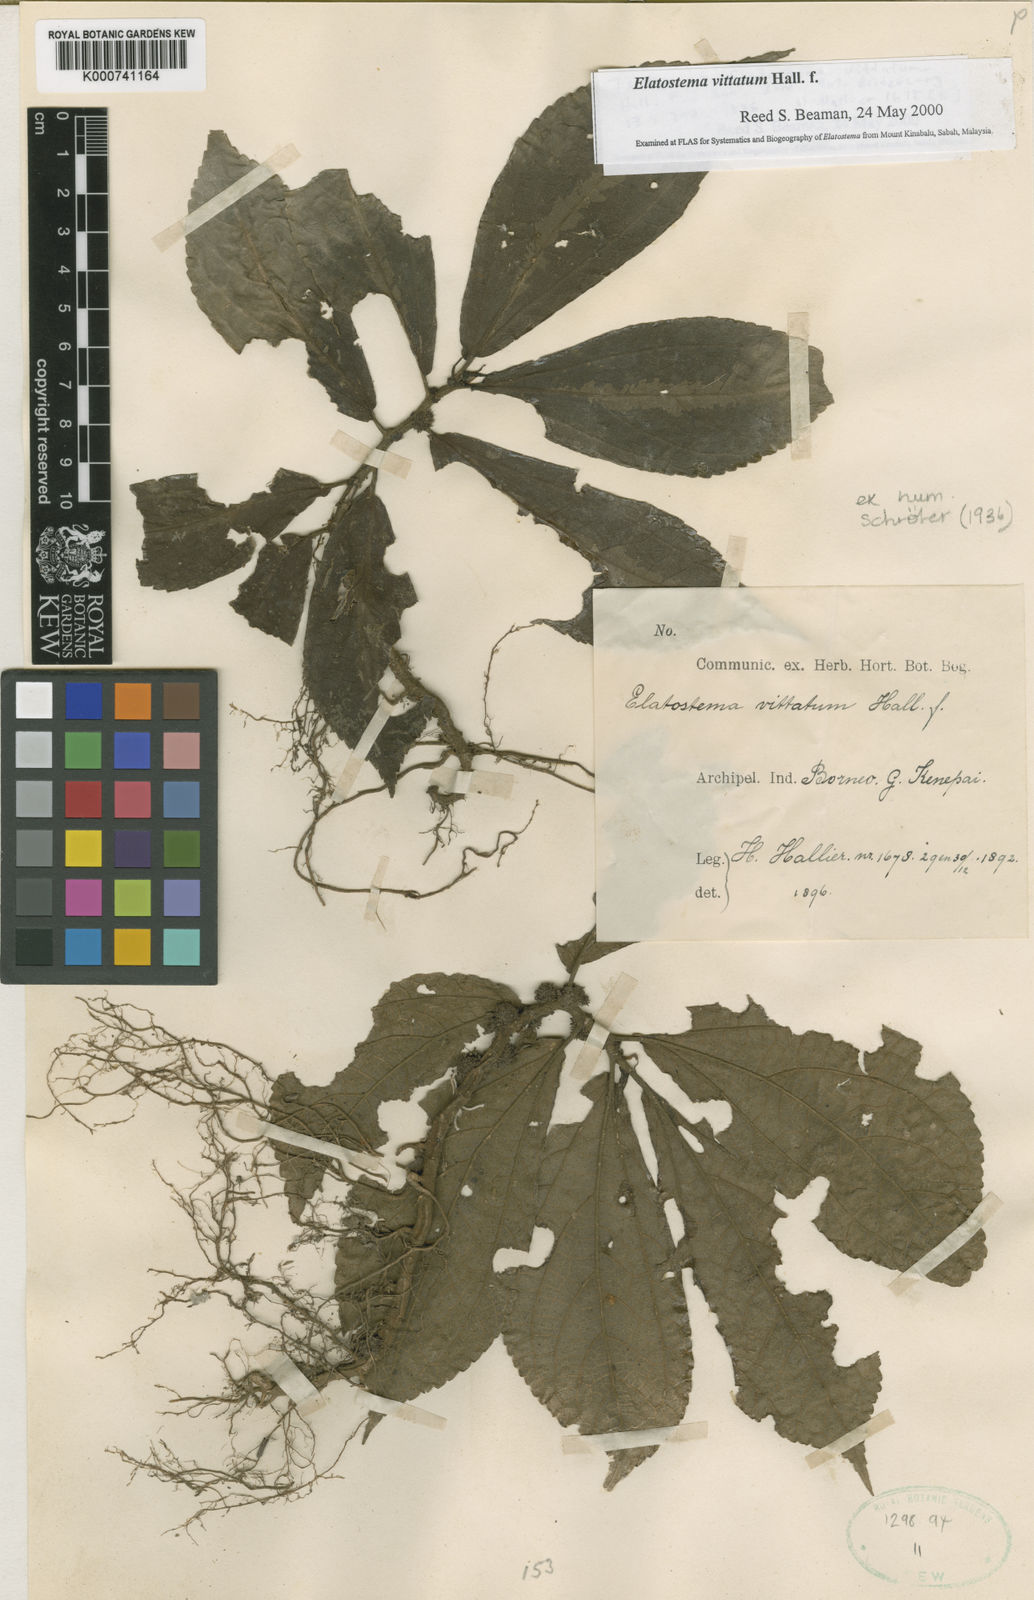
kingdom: Plantae
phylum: Tracheophyta
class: Magnoliopsida
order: Rosales
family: Urticaceae
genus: Elatostematoides
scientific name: Elatostematoides vittatum
